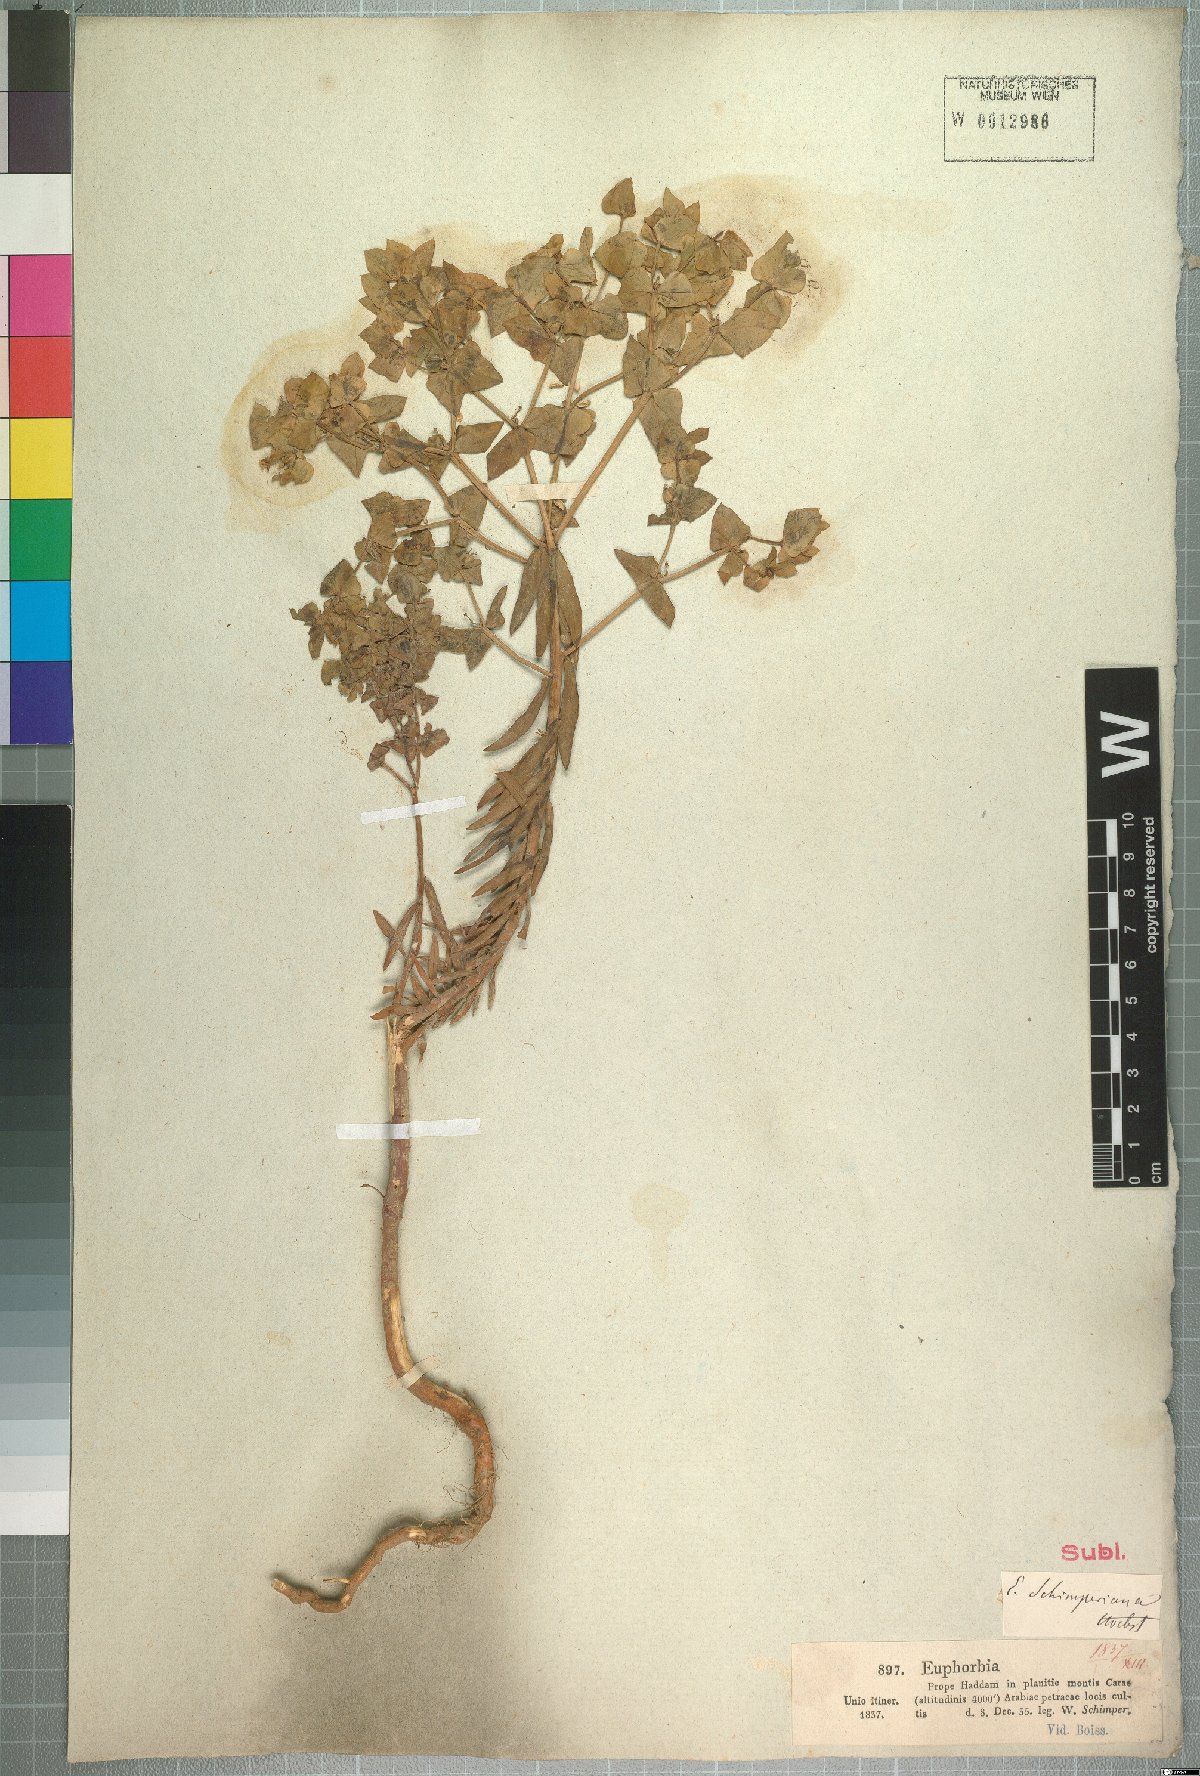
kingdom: Plantae
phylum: Tracheophyta
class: Magnoliopsida
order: Malpighiales
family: Euphorbiaceae
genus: Euphorbia
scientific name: Euphorbia schimperiana
